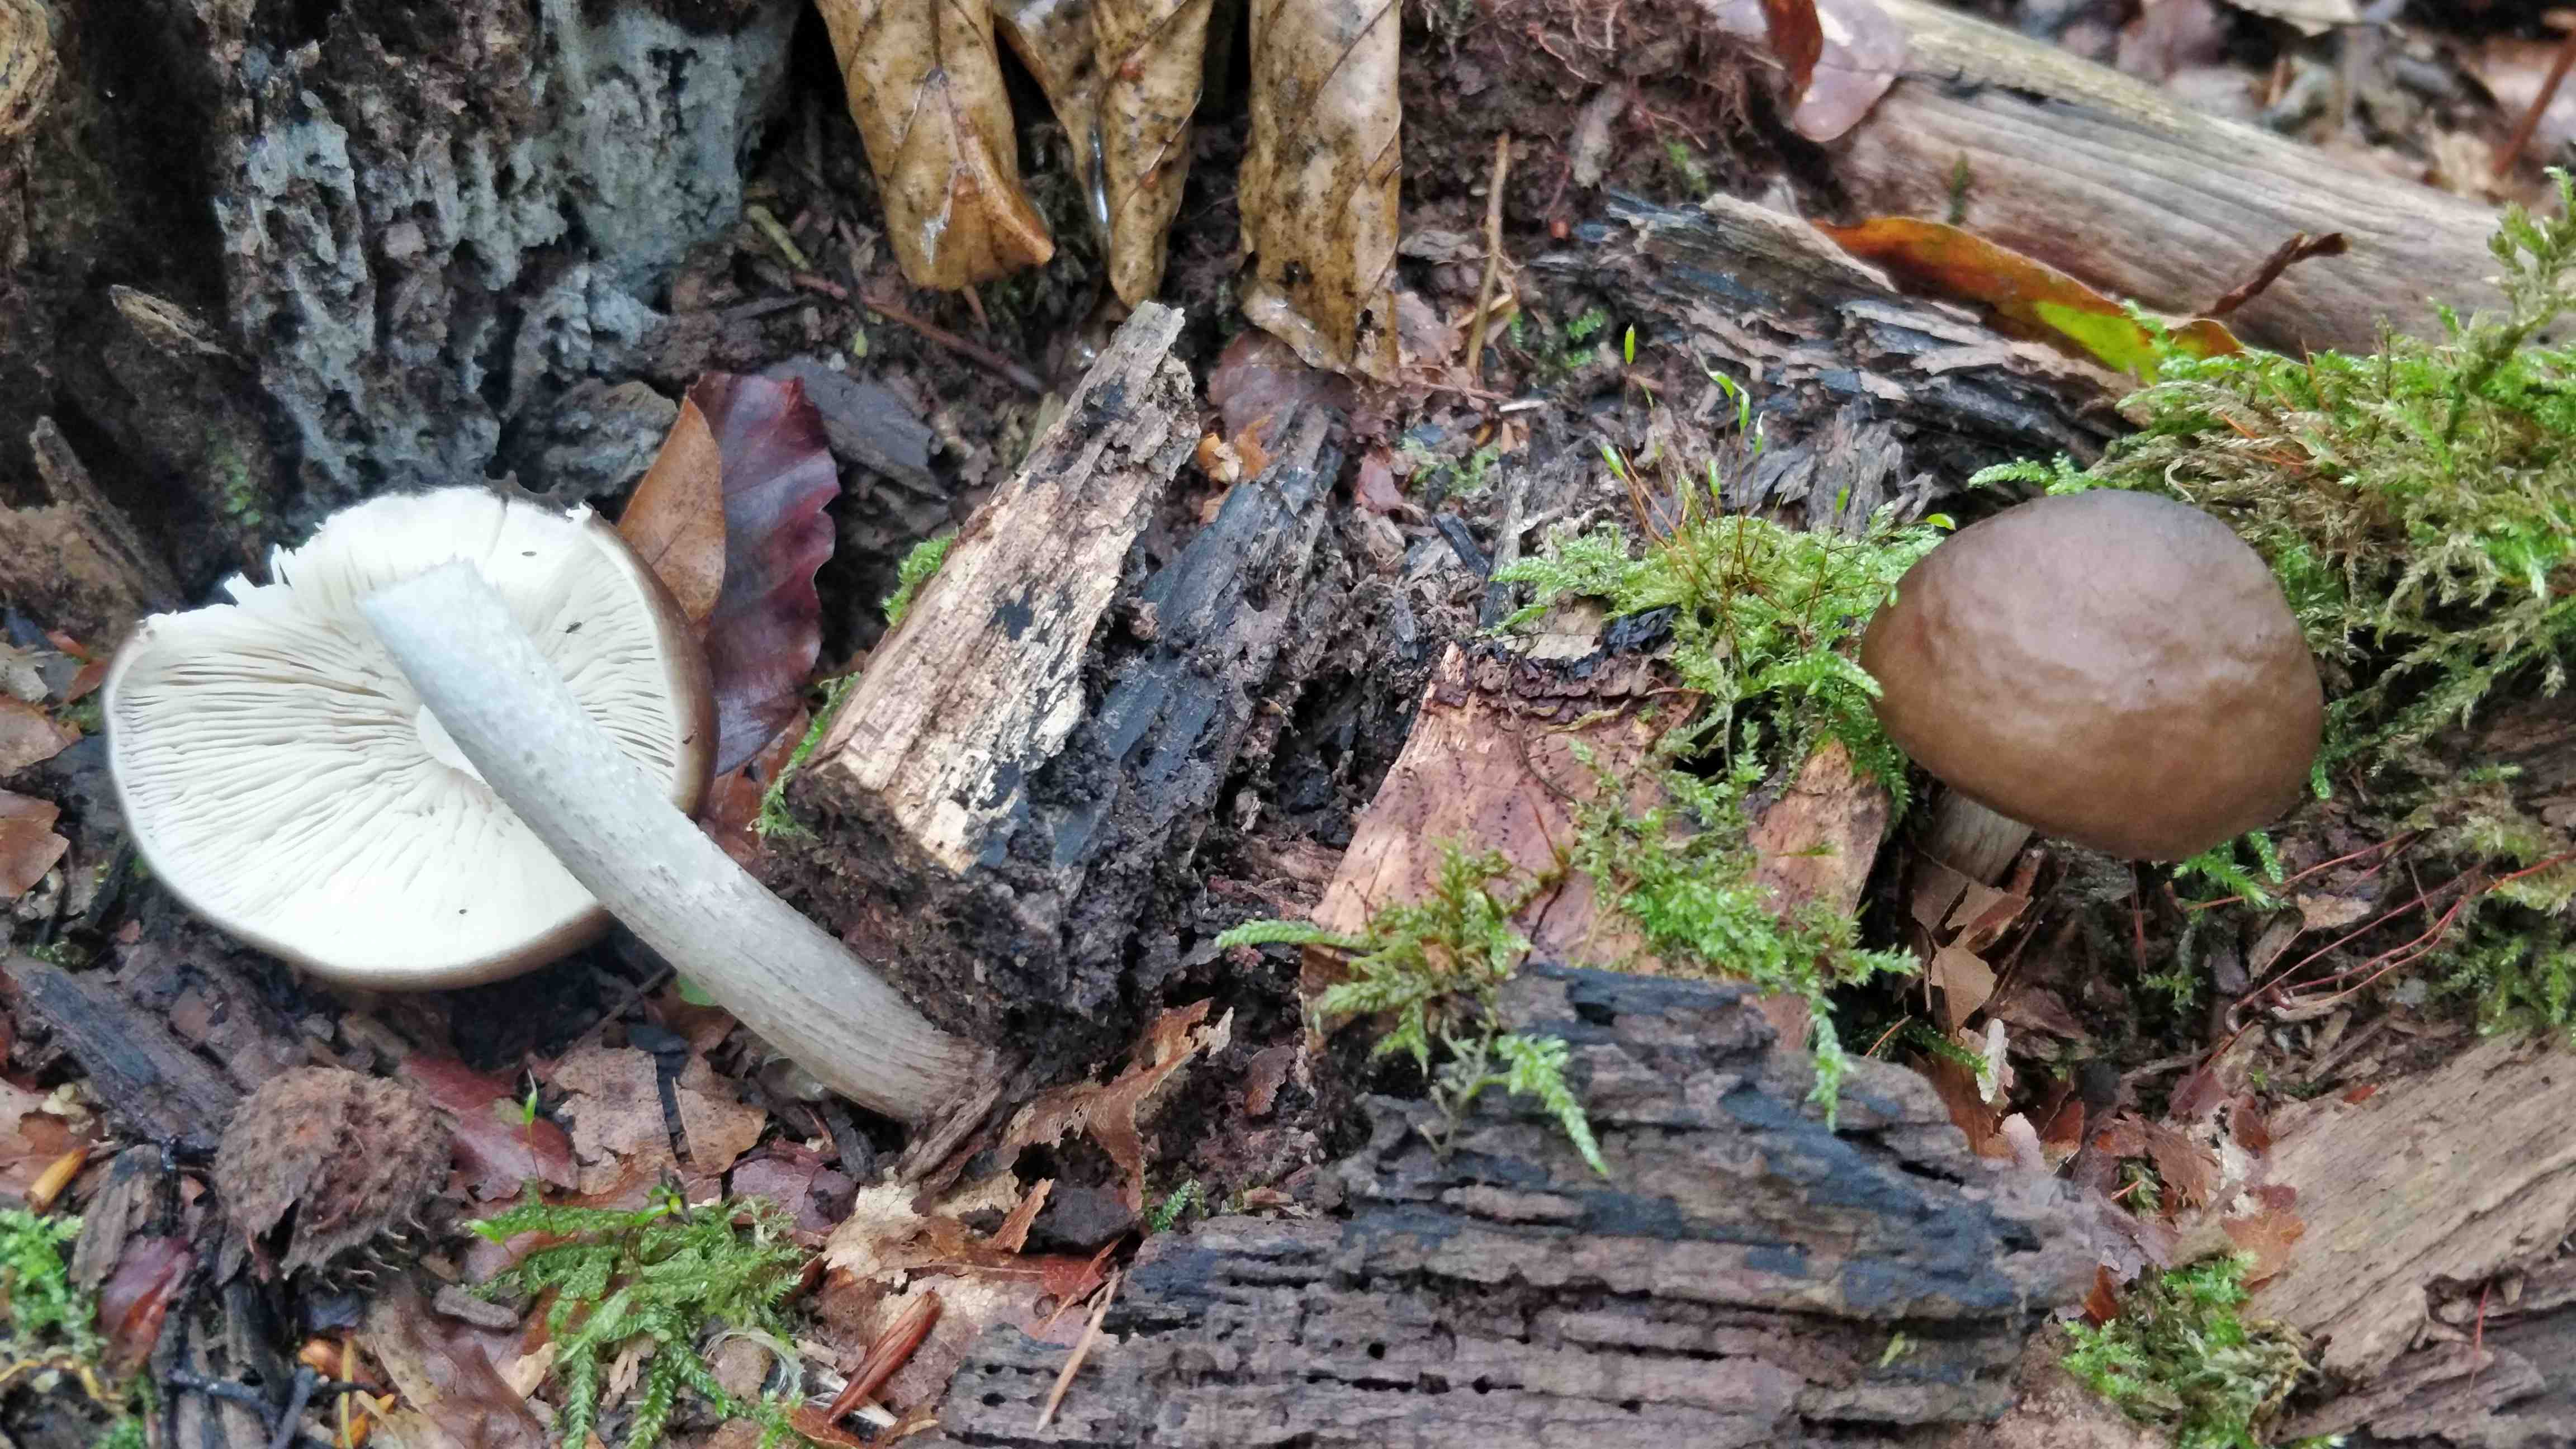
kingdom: Fungi
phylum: Basidiomycota
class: Agaricomycetes
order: Agaricales
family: Pluteaceae
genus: Pluteus
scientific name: Pluteus cervinus
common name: sodfarvet skærmhat
